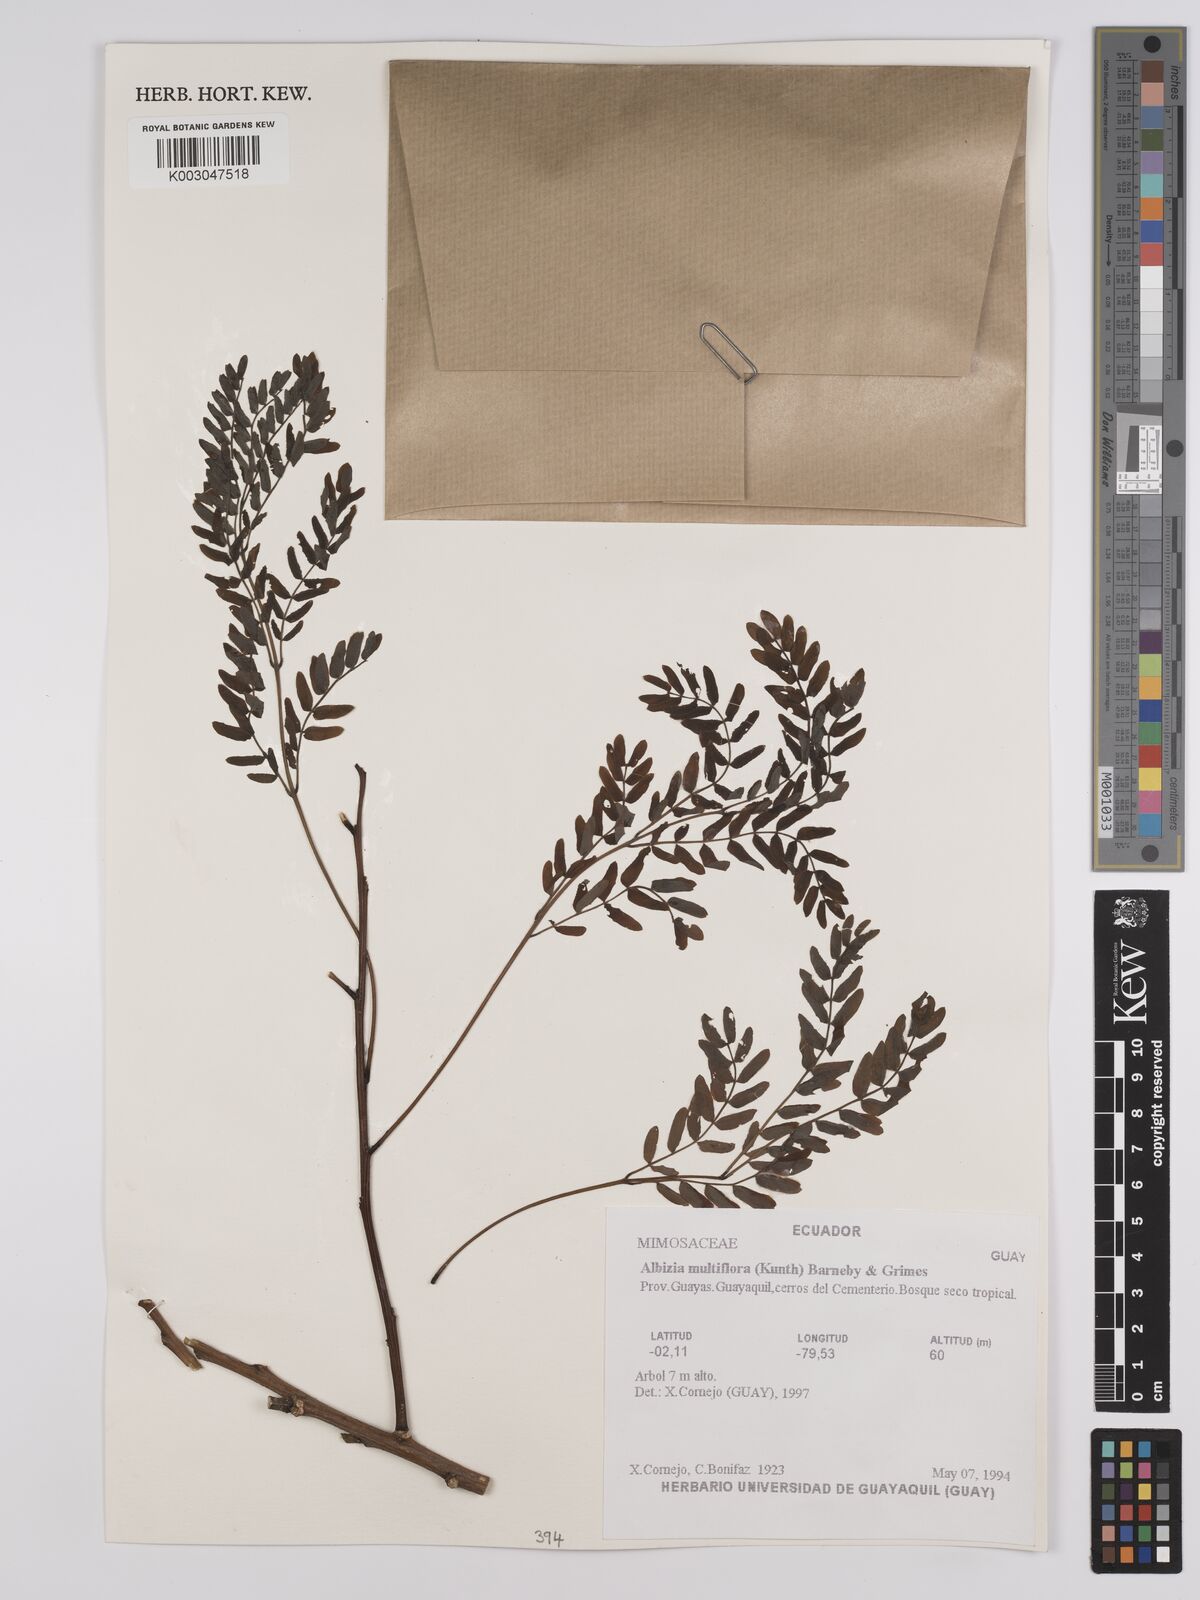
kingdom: Plantae
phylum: Tracheophyta
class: Magnoliopsida
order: Fabales
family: Fabaceae
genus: Albizia
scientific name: Albizia multiflora
